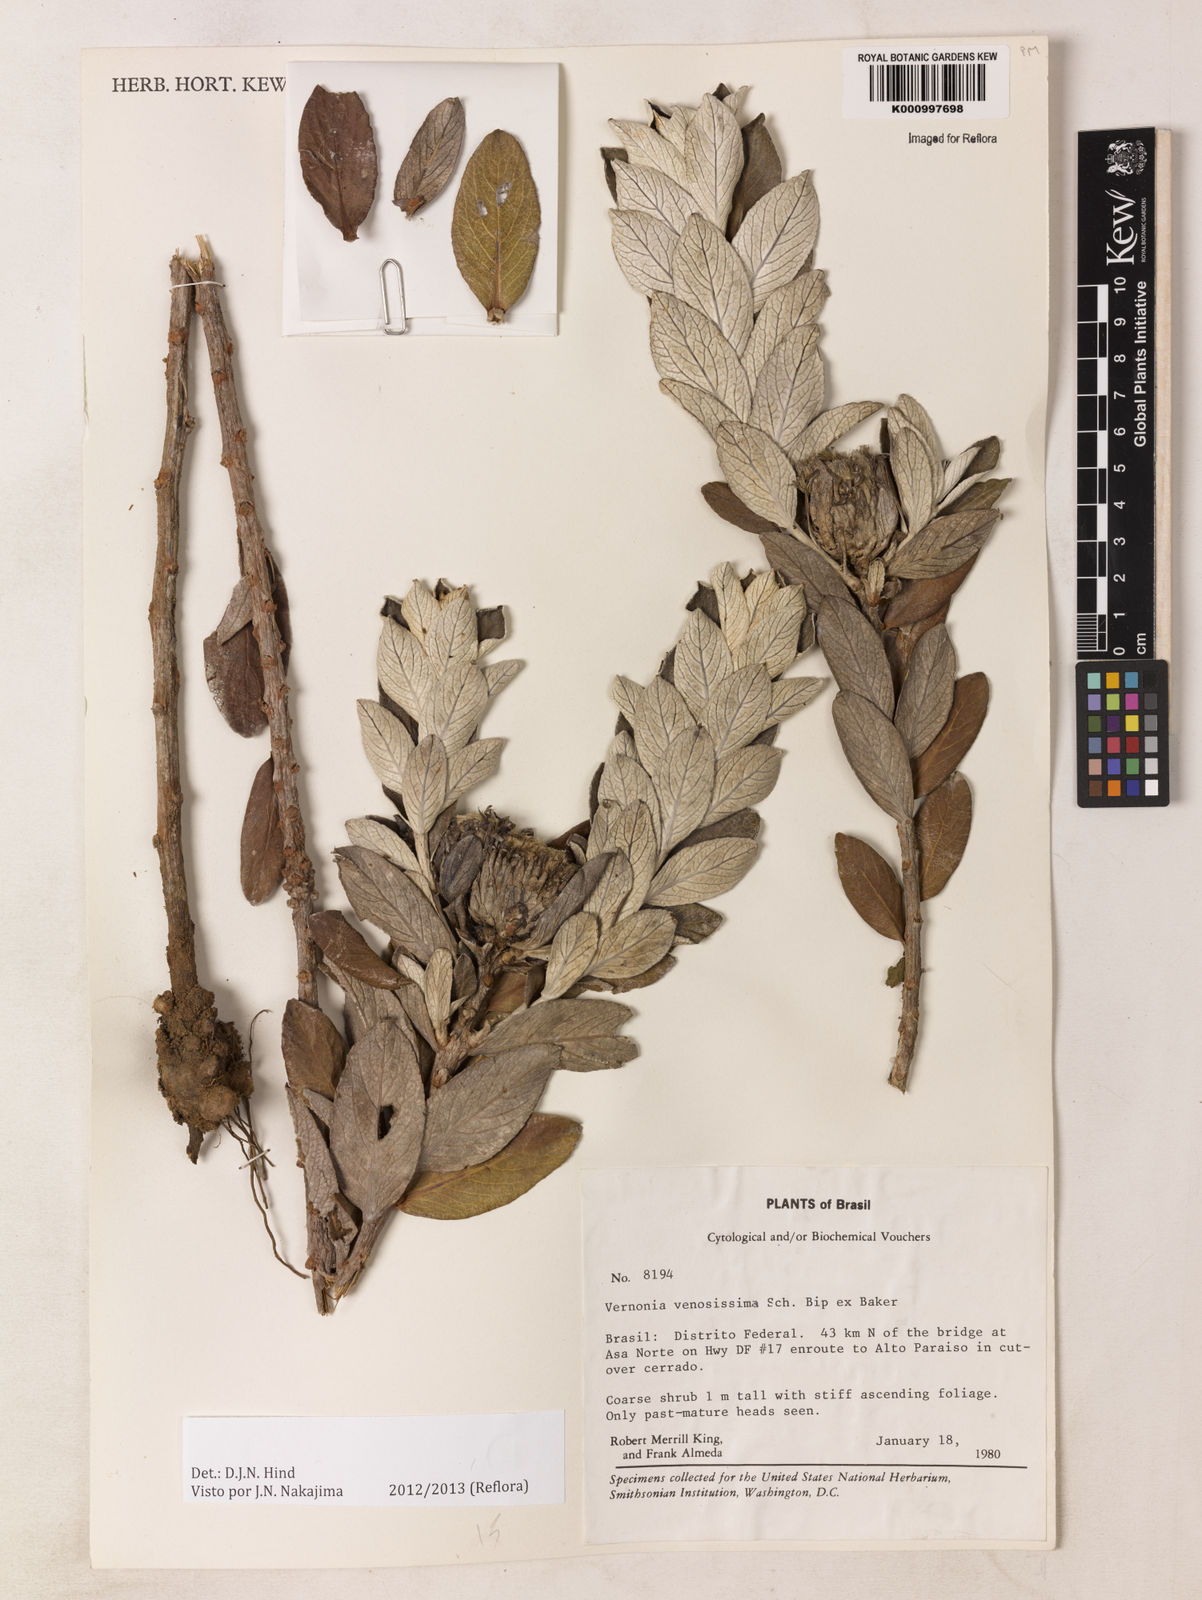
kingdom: Plantae
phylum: Tracheophyta
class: Magnoliopsida
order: Asterales
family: Asteraceae
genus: Lessingianthus
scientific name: Lessingianthus venosissimus
